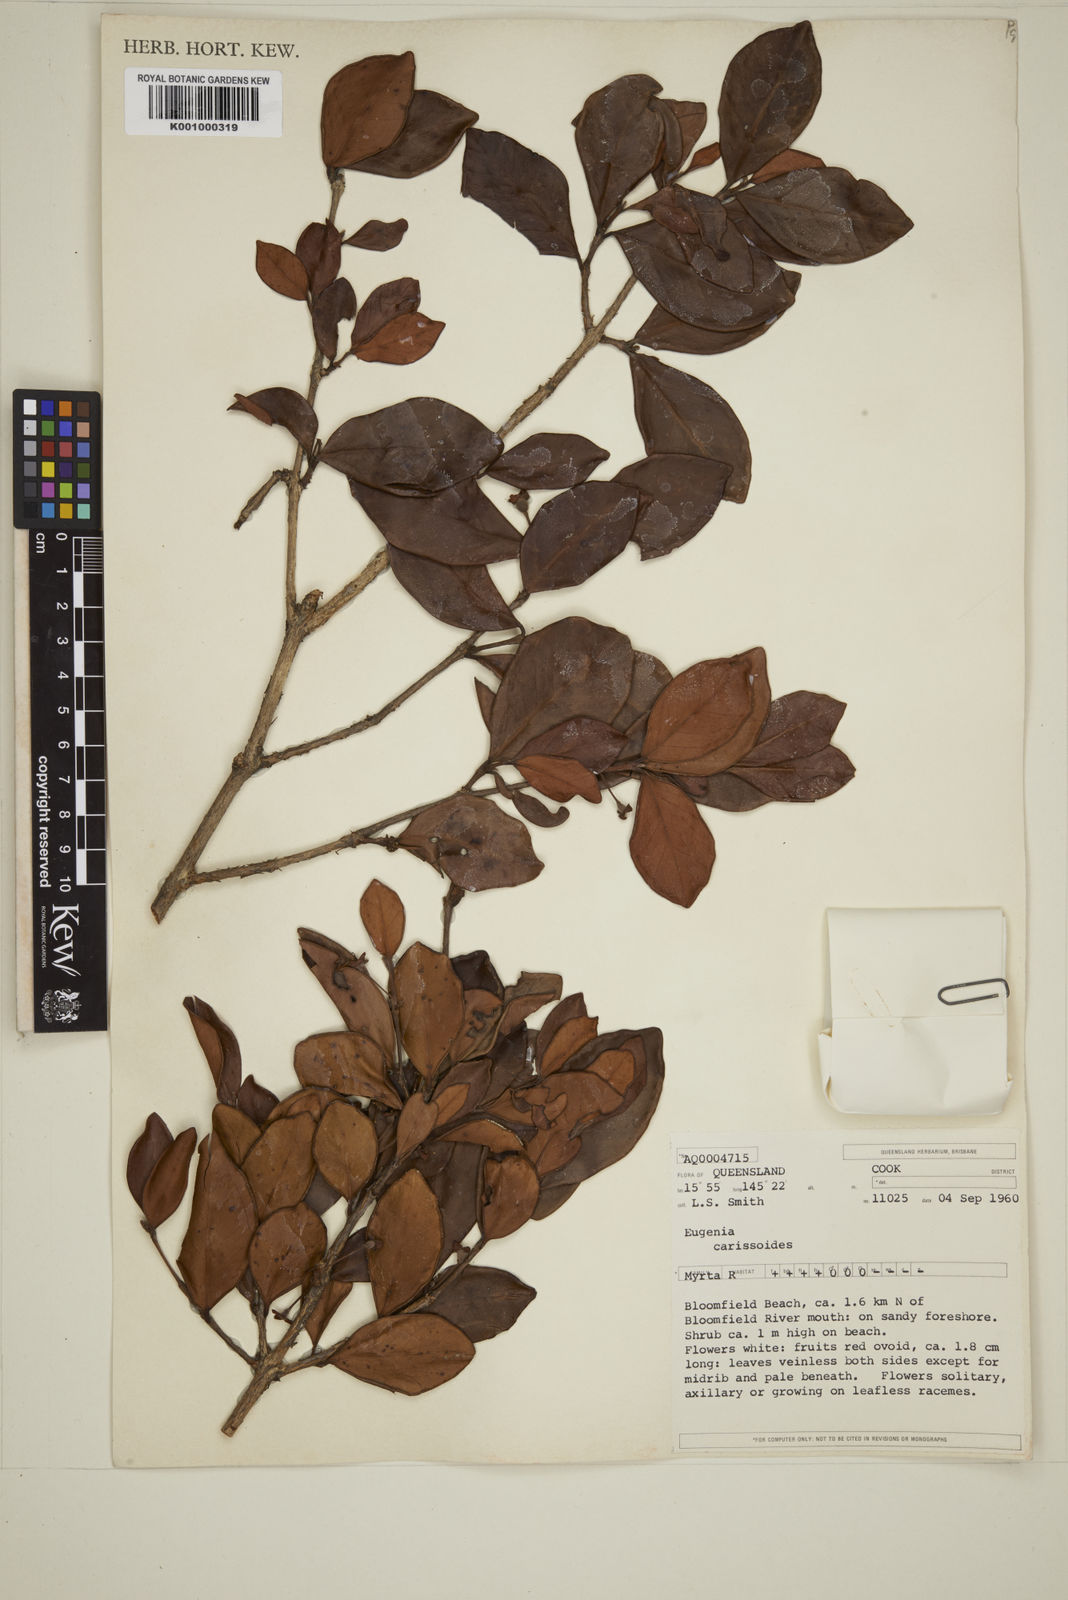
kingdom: Plantae
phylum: Tracheophyta
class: Magnoliopsida
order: Myrtales
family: Myrtaceae
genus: Eugenia
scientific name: Eugenia reinwardtiana
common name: Cedar bay-cherry
